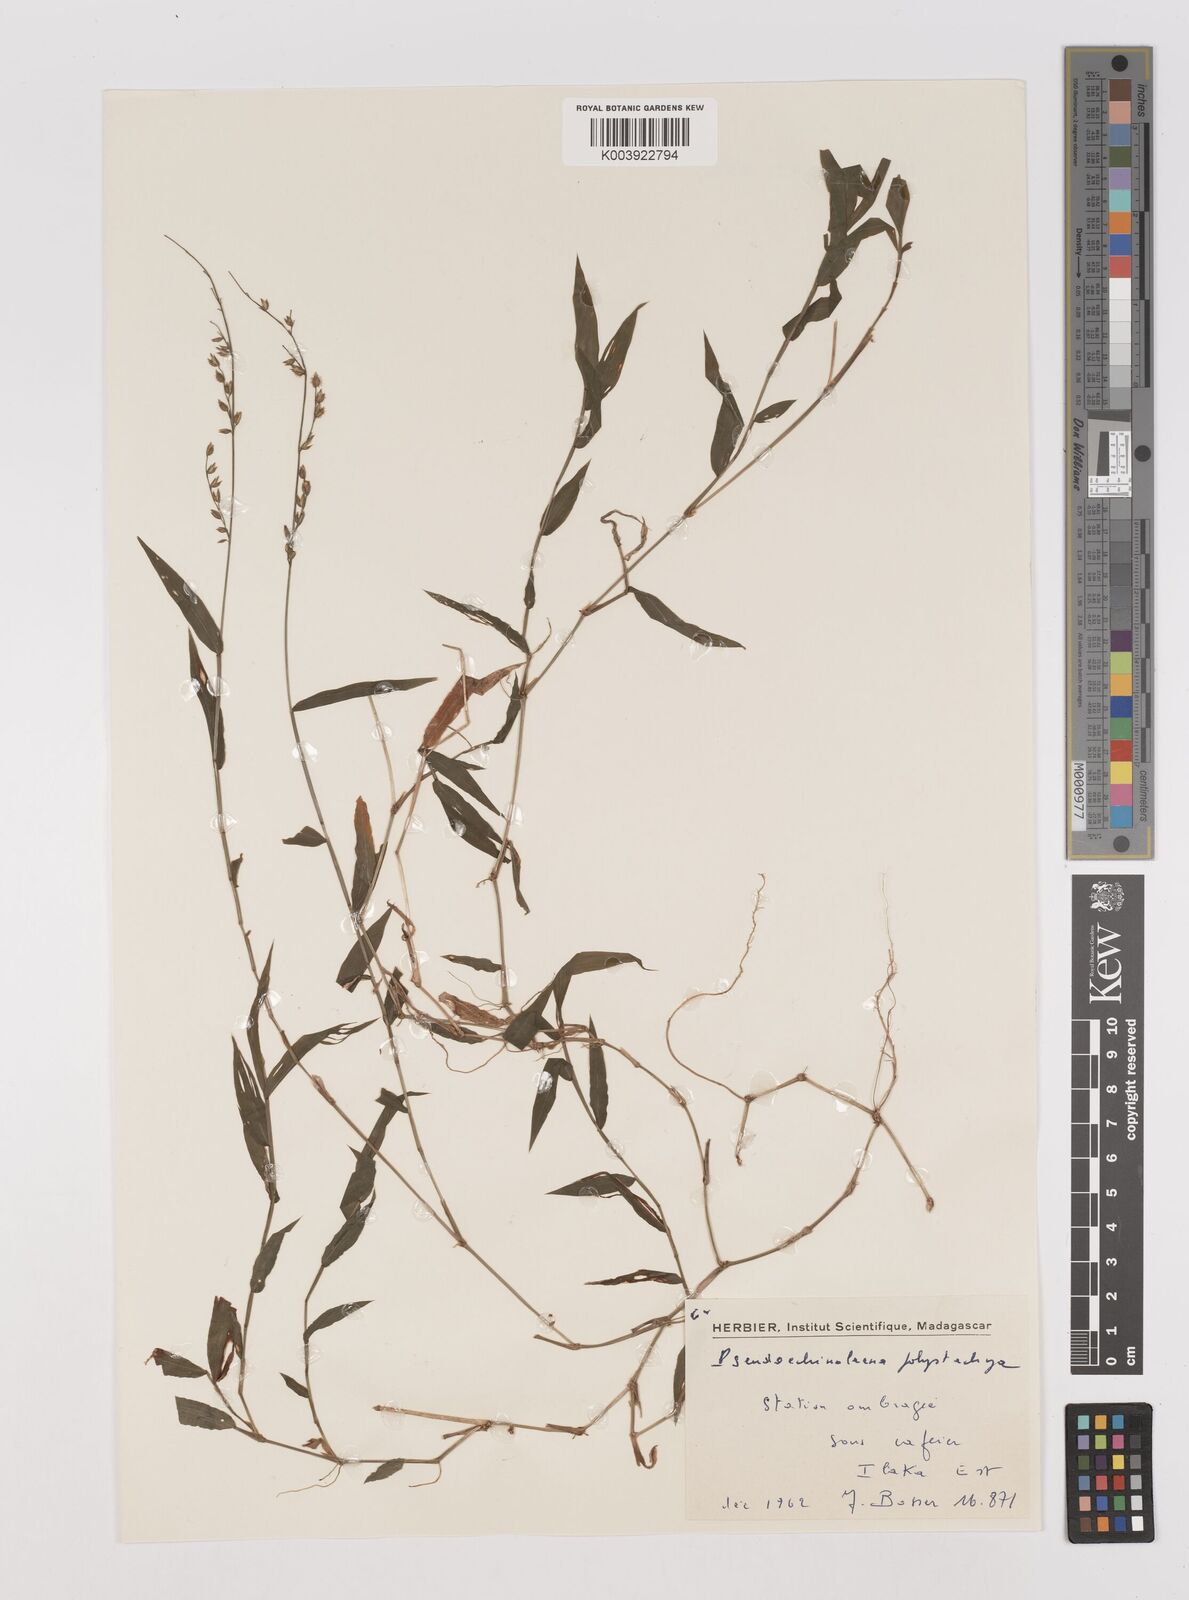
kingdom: Plantae
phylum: Tracheophyta
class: Liliopsida
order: Poales
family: Poaceae
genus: Pseudechinolaena
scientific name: Pseudechinolaena polystachya
